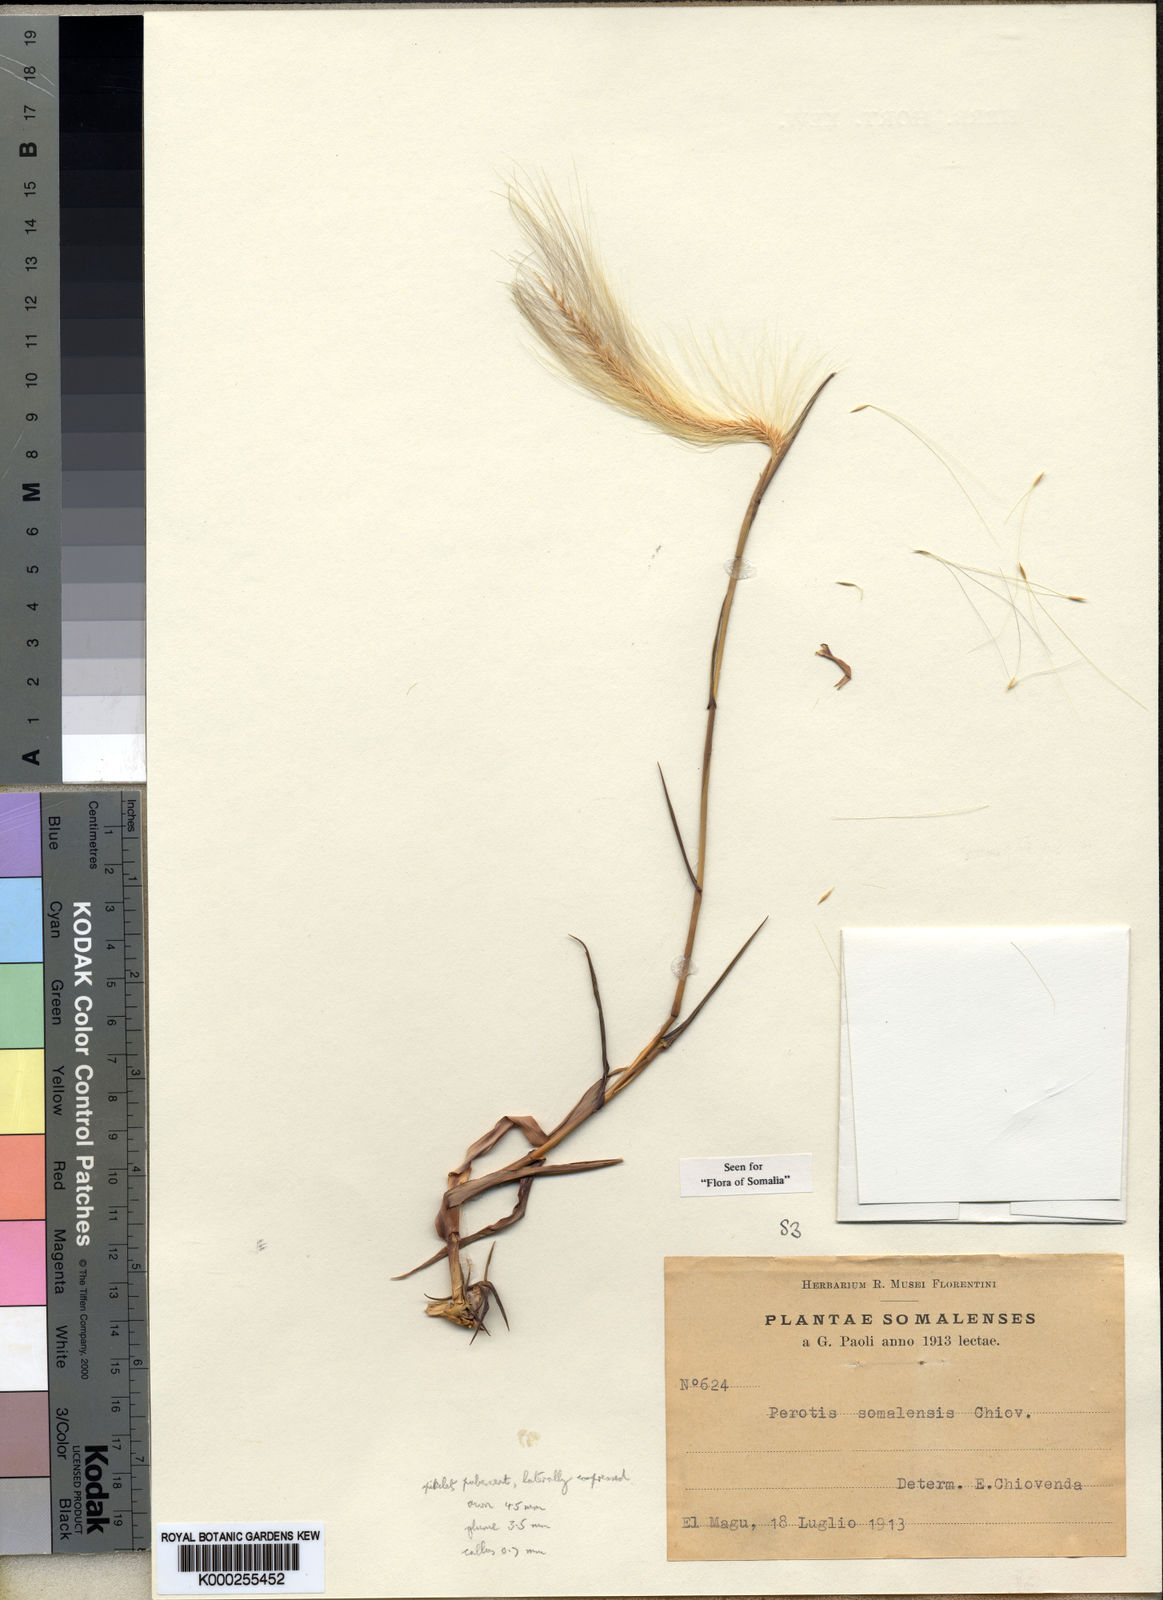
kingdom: Plantae
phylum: Tracheophyta
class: Liliopsida
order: Poales
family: Poaceae
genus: Perotis
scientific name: Perotis somalensis
